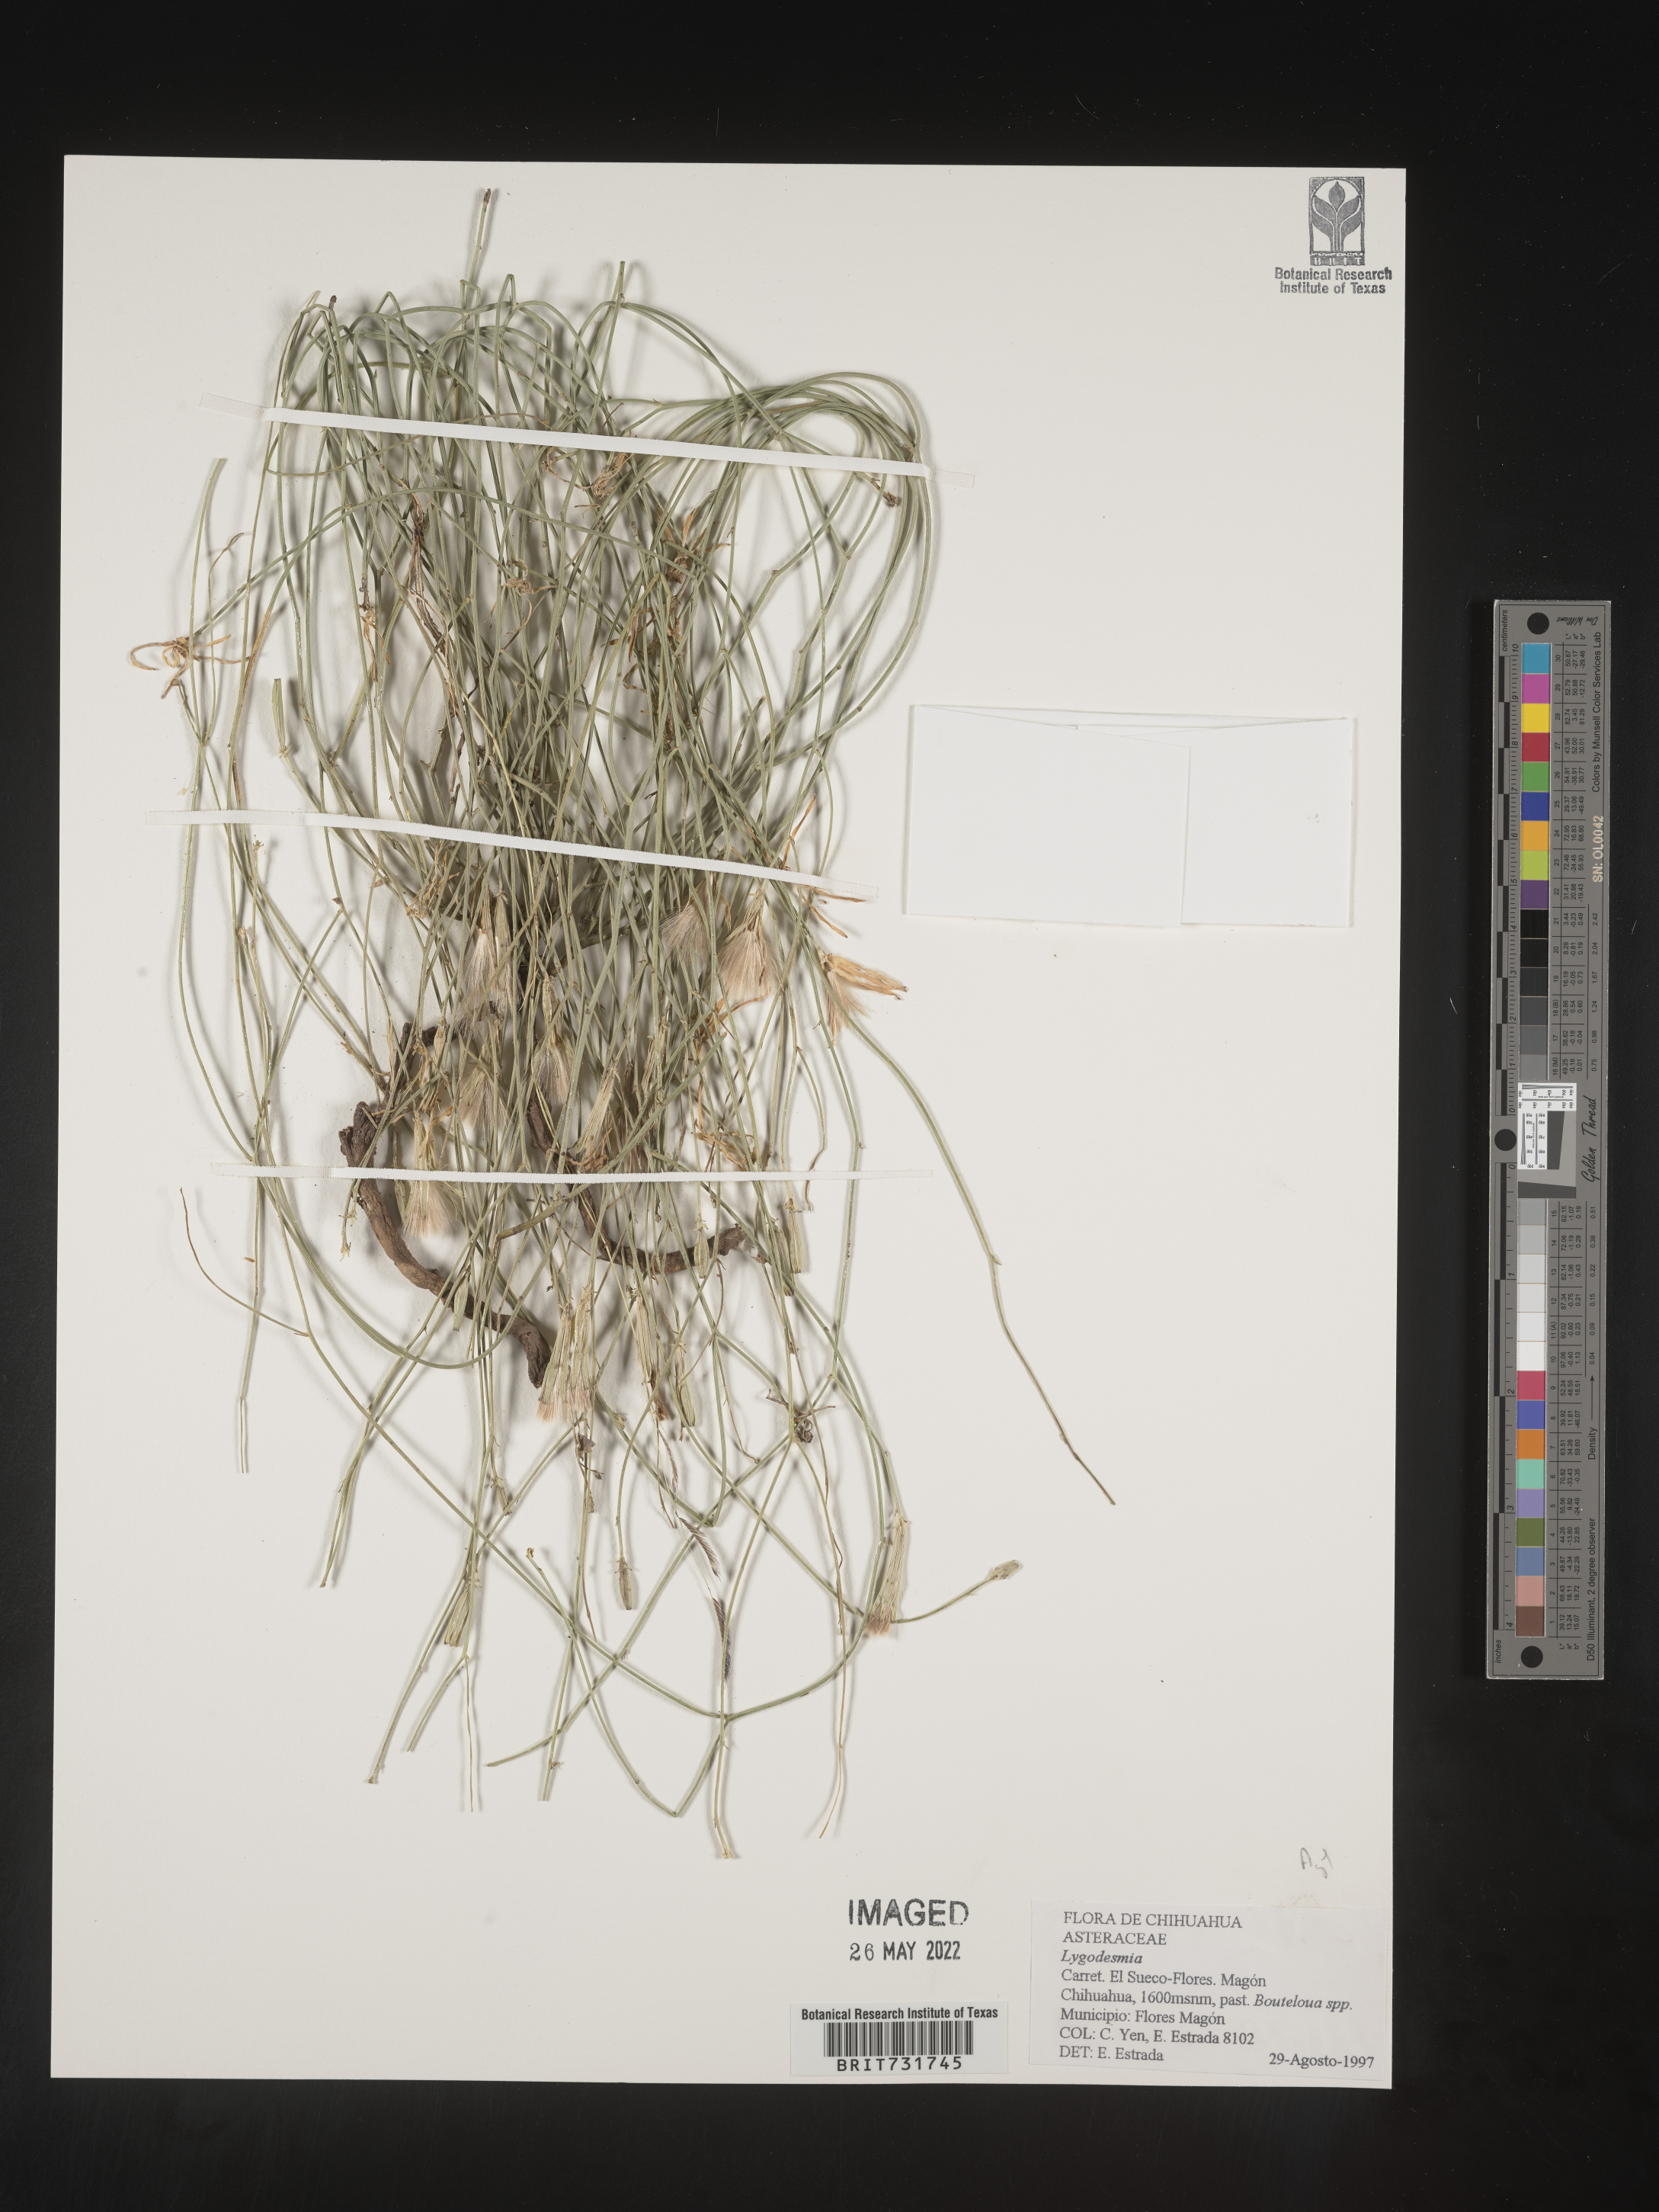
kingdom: Plantae
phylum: Tracheophyta
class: Magnoliopsida
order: Asterales
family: Asteraceae
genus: Lygodesmia
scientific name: Lygodesmia
